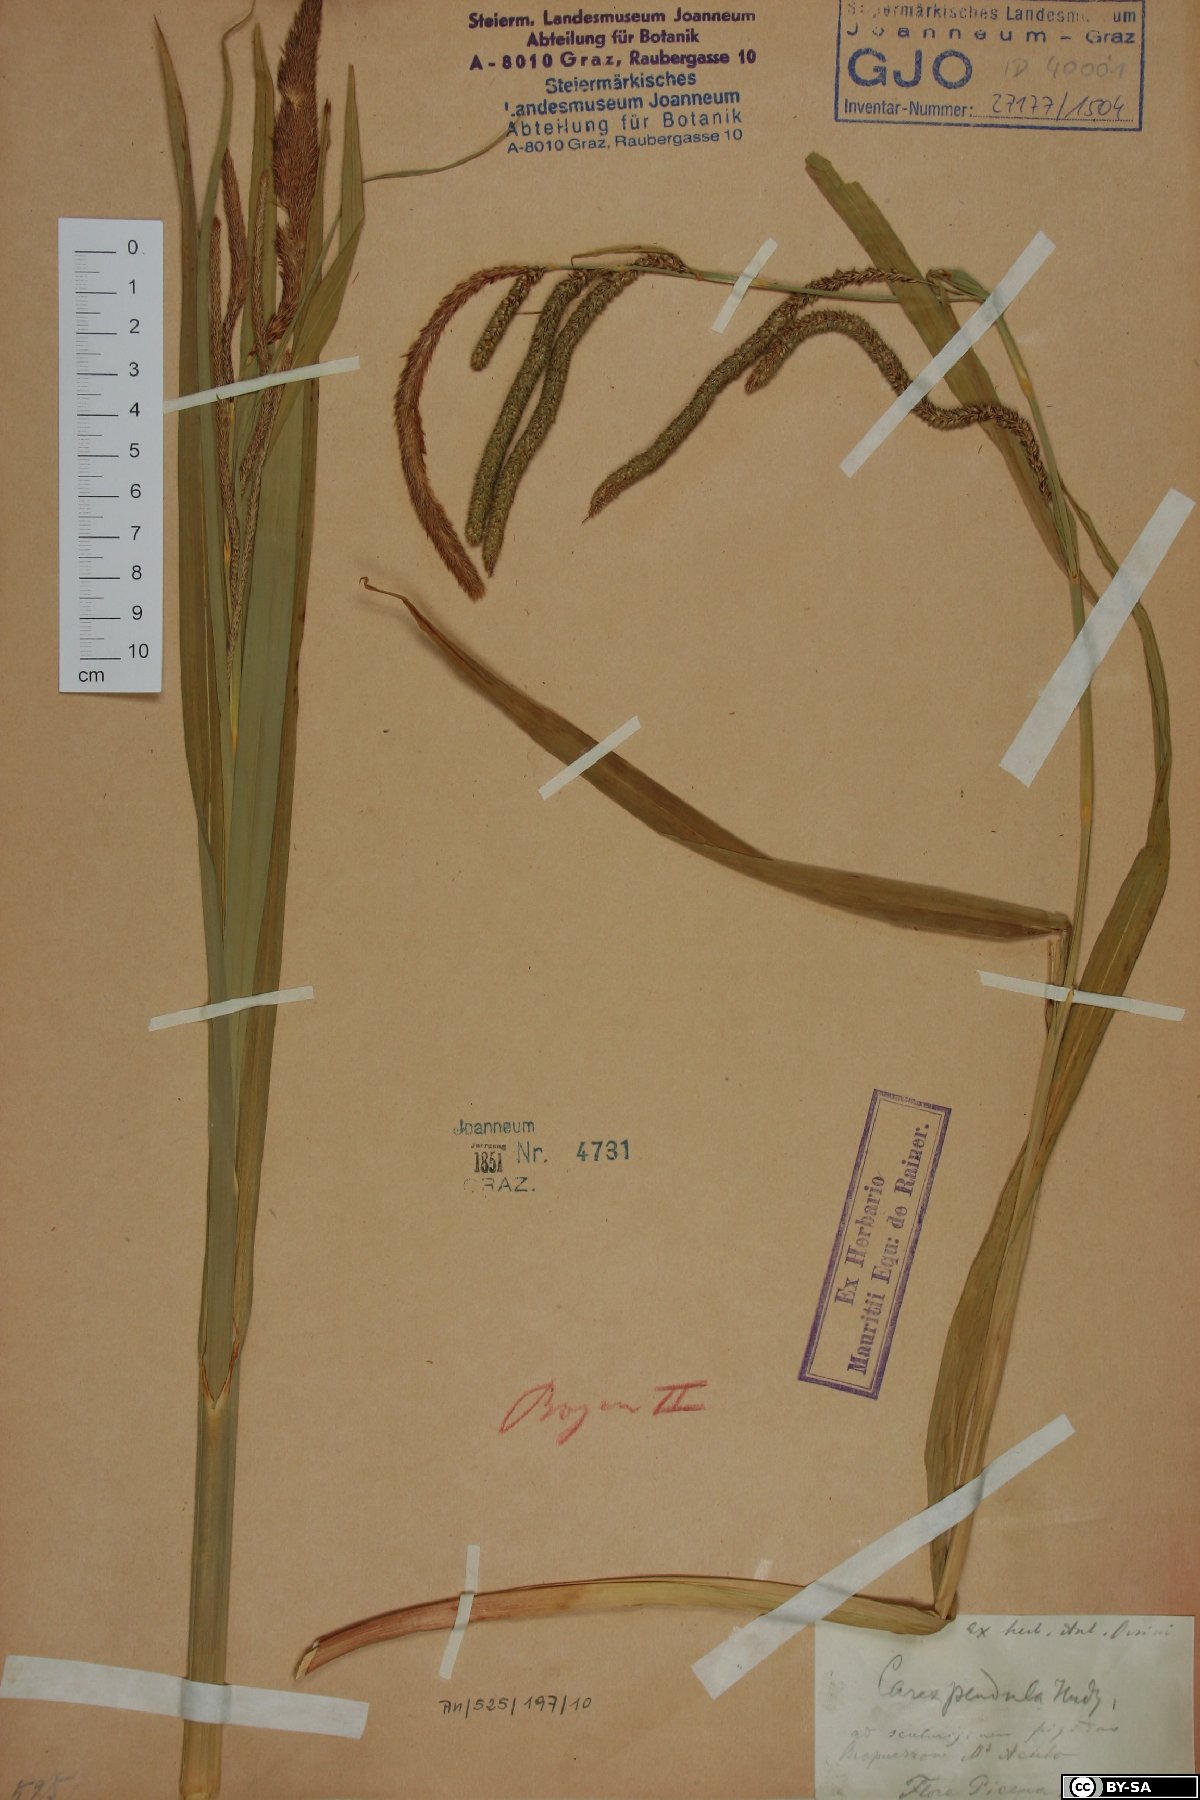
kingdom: Plantae
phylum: Tracheophyta
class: Liliopsida
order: Poales
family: Cyperaceae
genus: Carex
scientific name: Carex pendula
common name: Pendulous sedge
